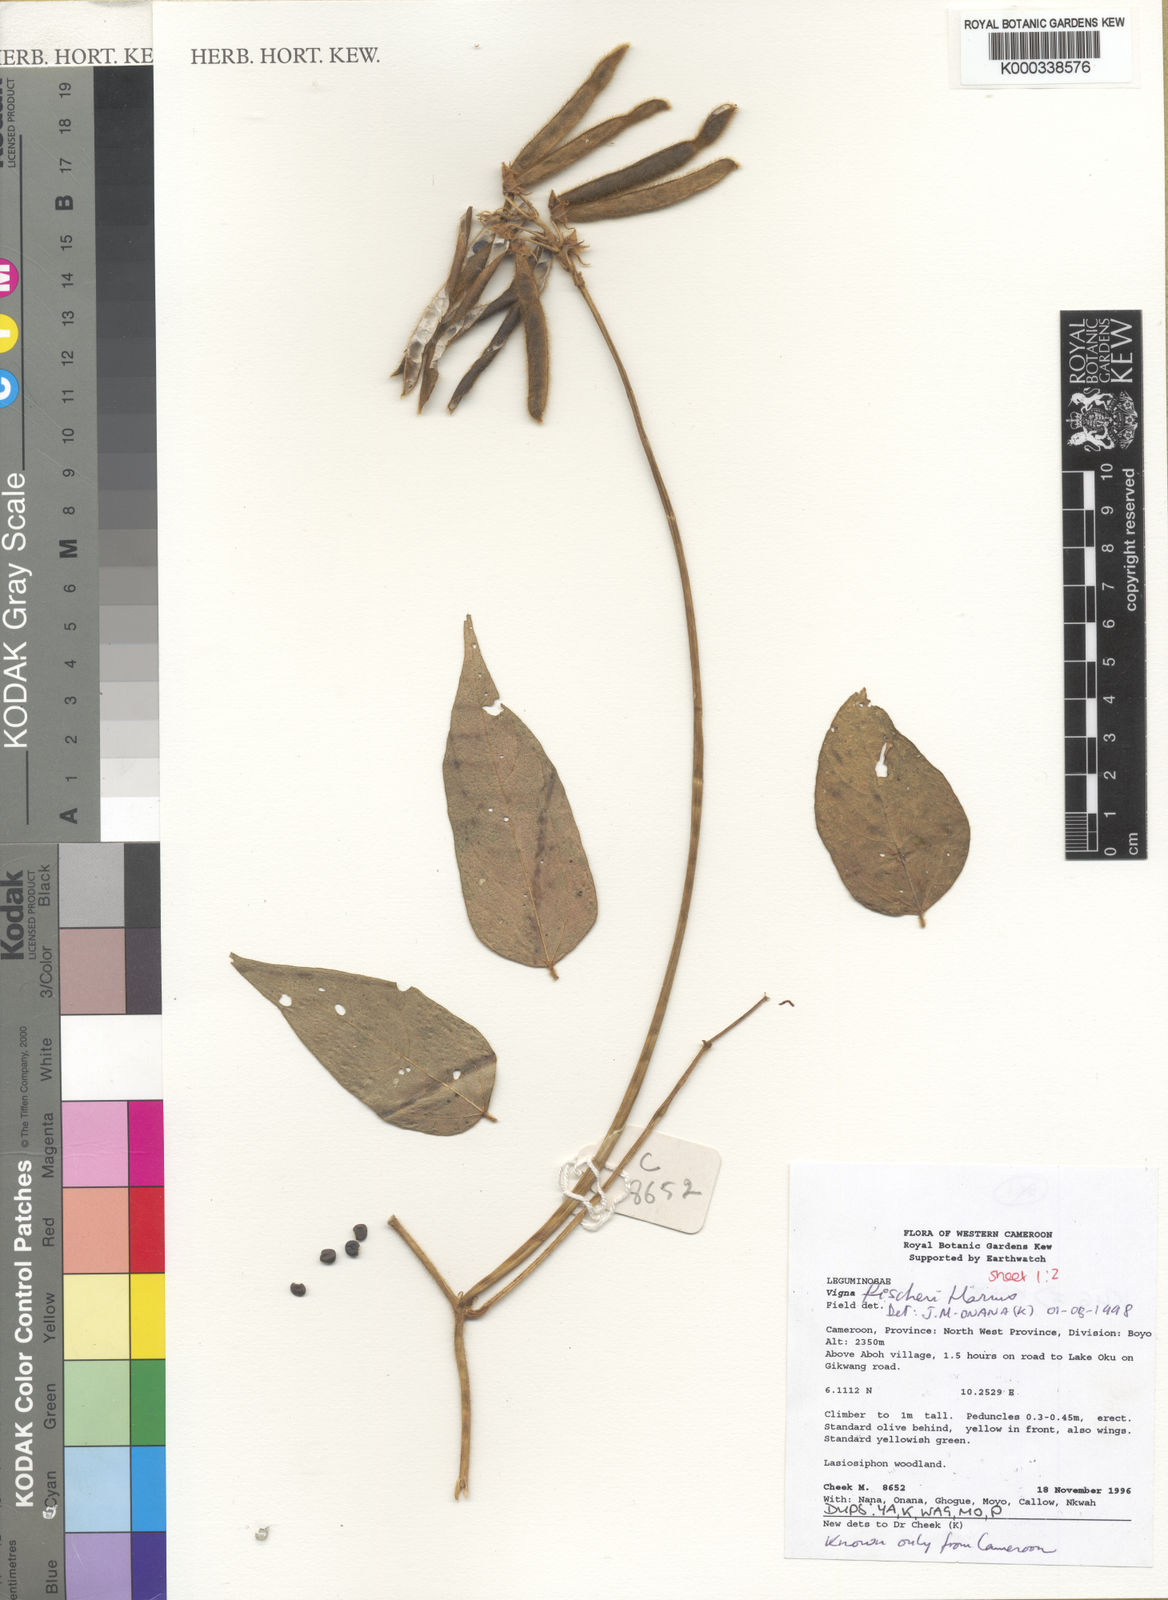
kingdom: Plantae
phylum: Tracheophyta
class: Magnoliopsida
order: Fabales
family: Fabaceae
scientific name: Fabaceae
